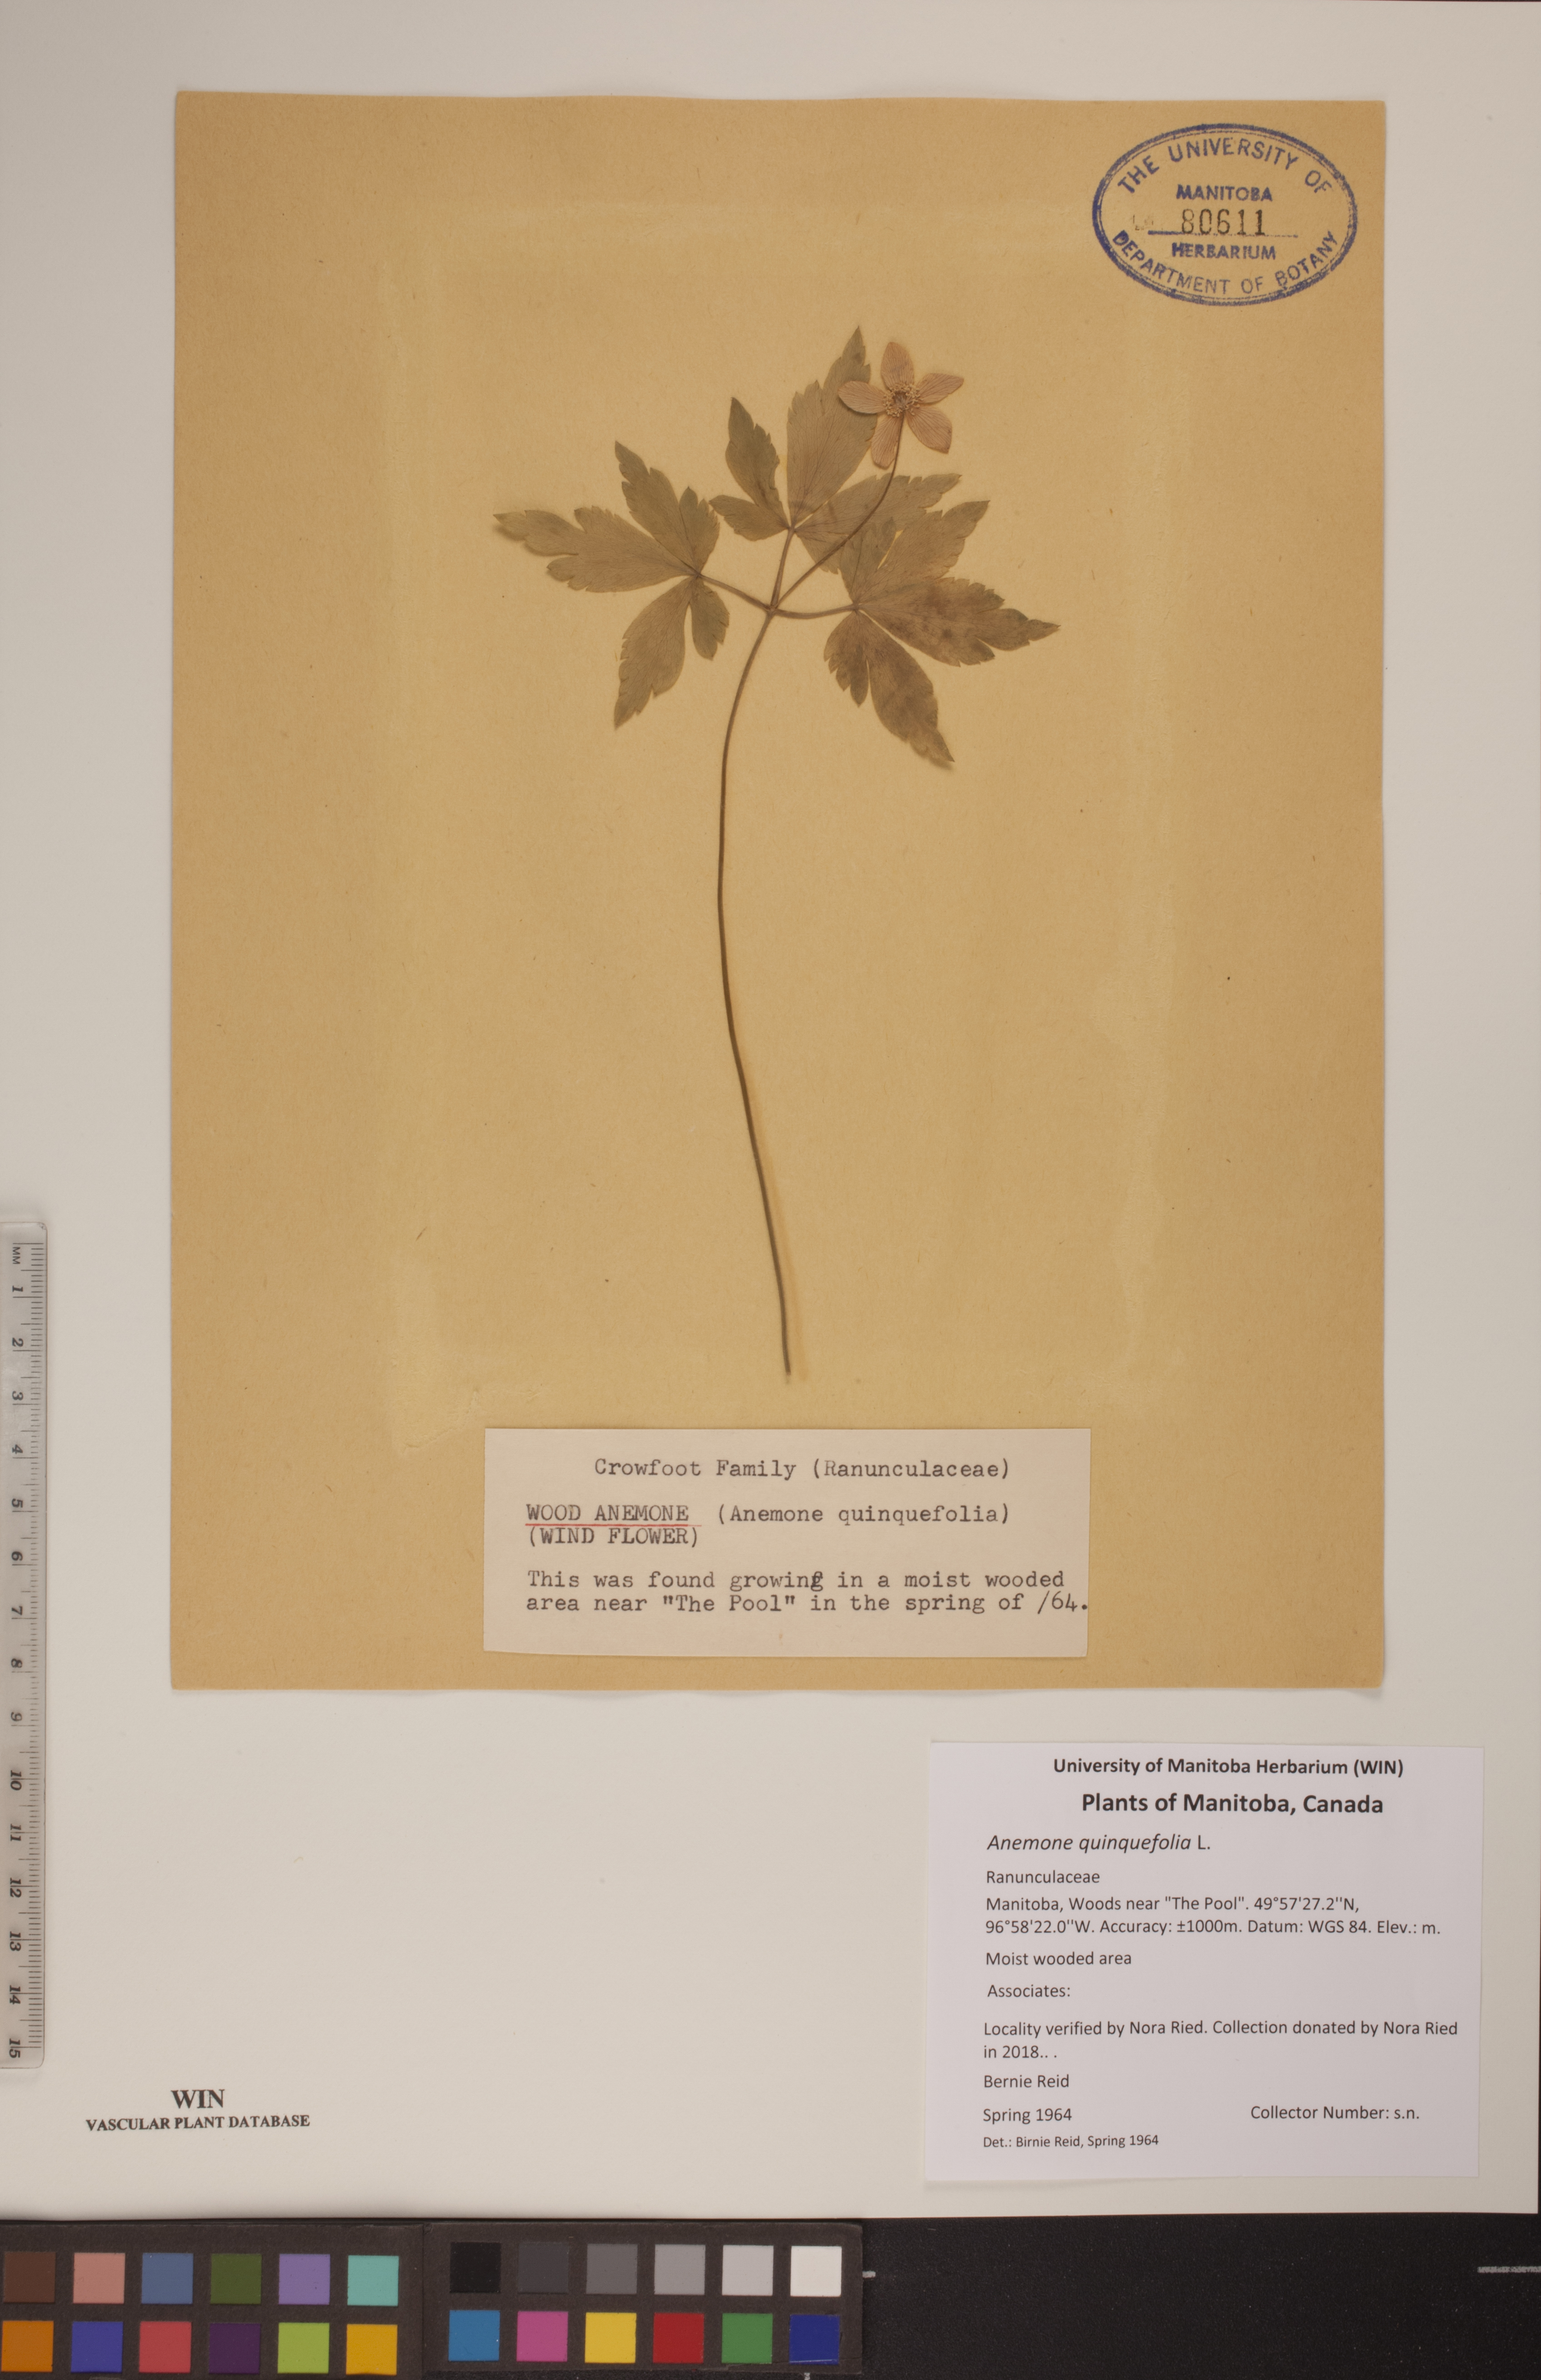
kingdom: Plantae
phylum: Tracheophyta
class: Magnoliopsida
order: Ranunculales
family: Ranunculaceae
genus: Anemone
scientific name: Anemone quinquefolia
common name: Wood anemone
